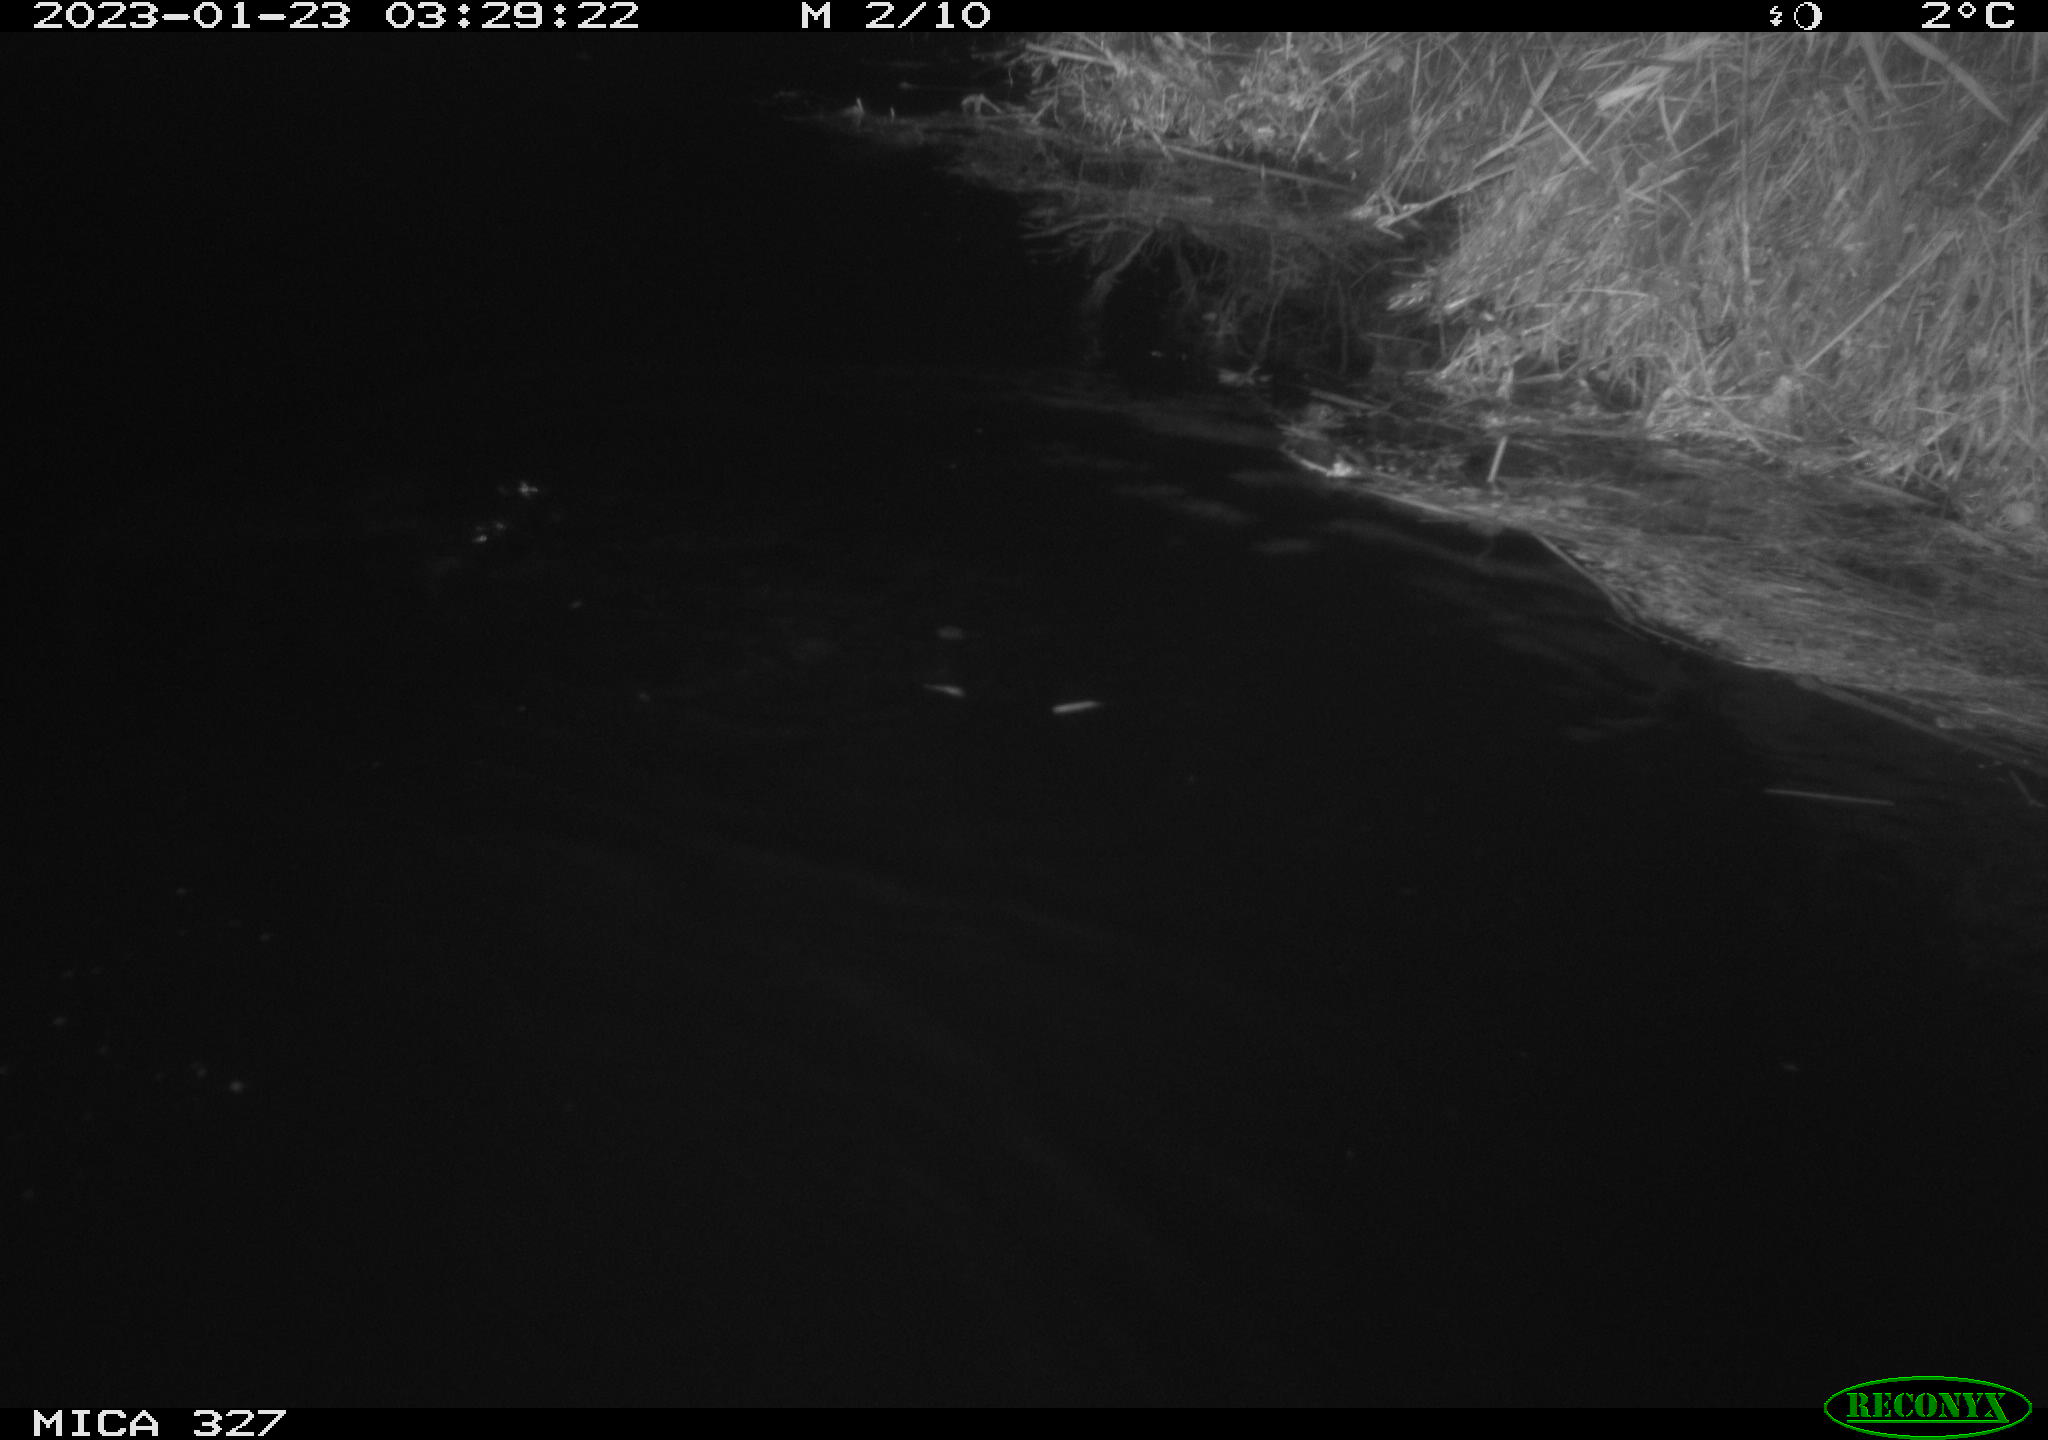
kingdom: Animalia
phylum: Chordata
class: Mammalia
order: Rodentia
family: Cricetidae
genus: Ondatra
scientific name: Ondatra zibethicus
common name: Muskrat
